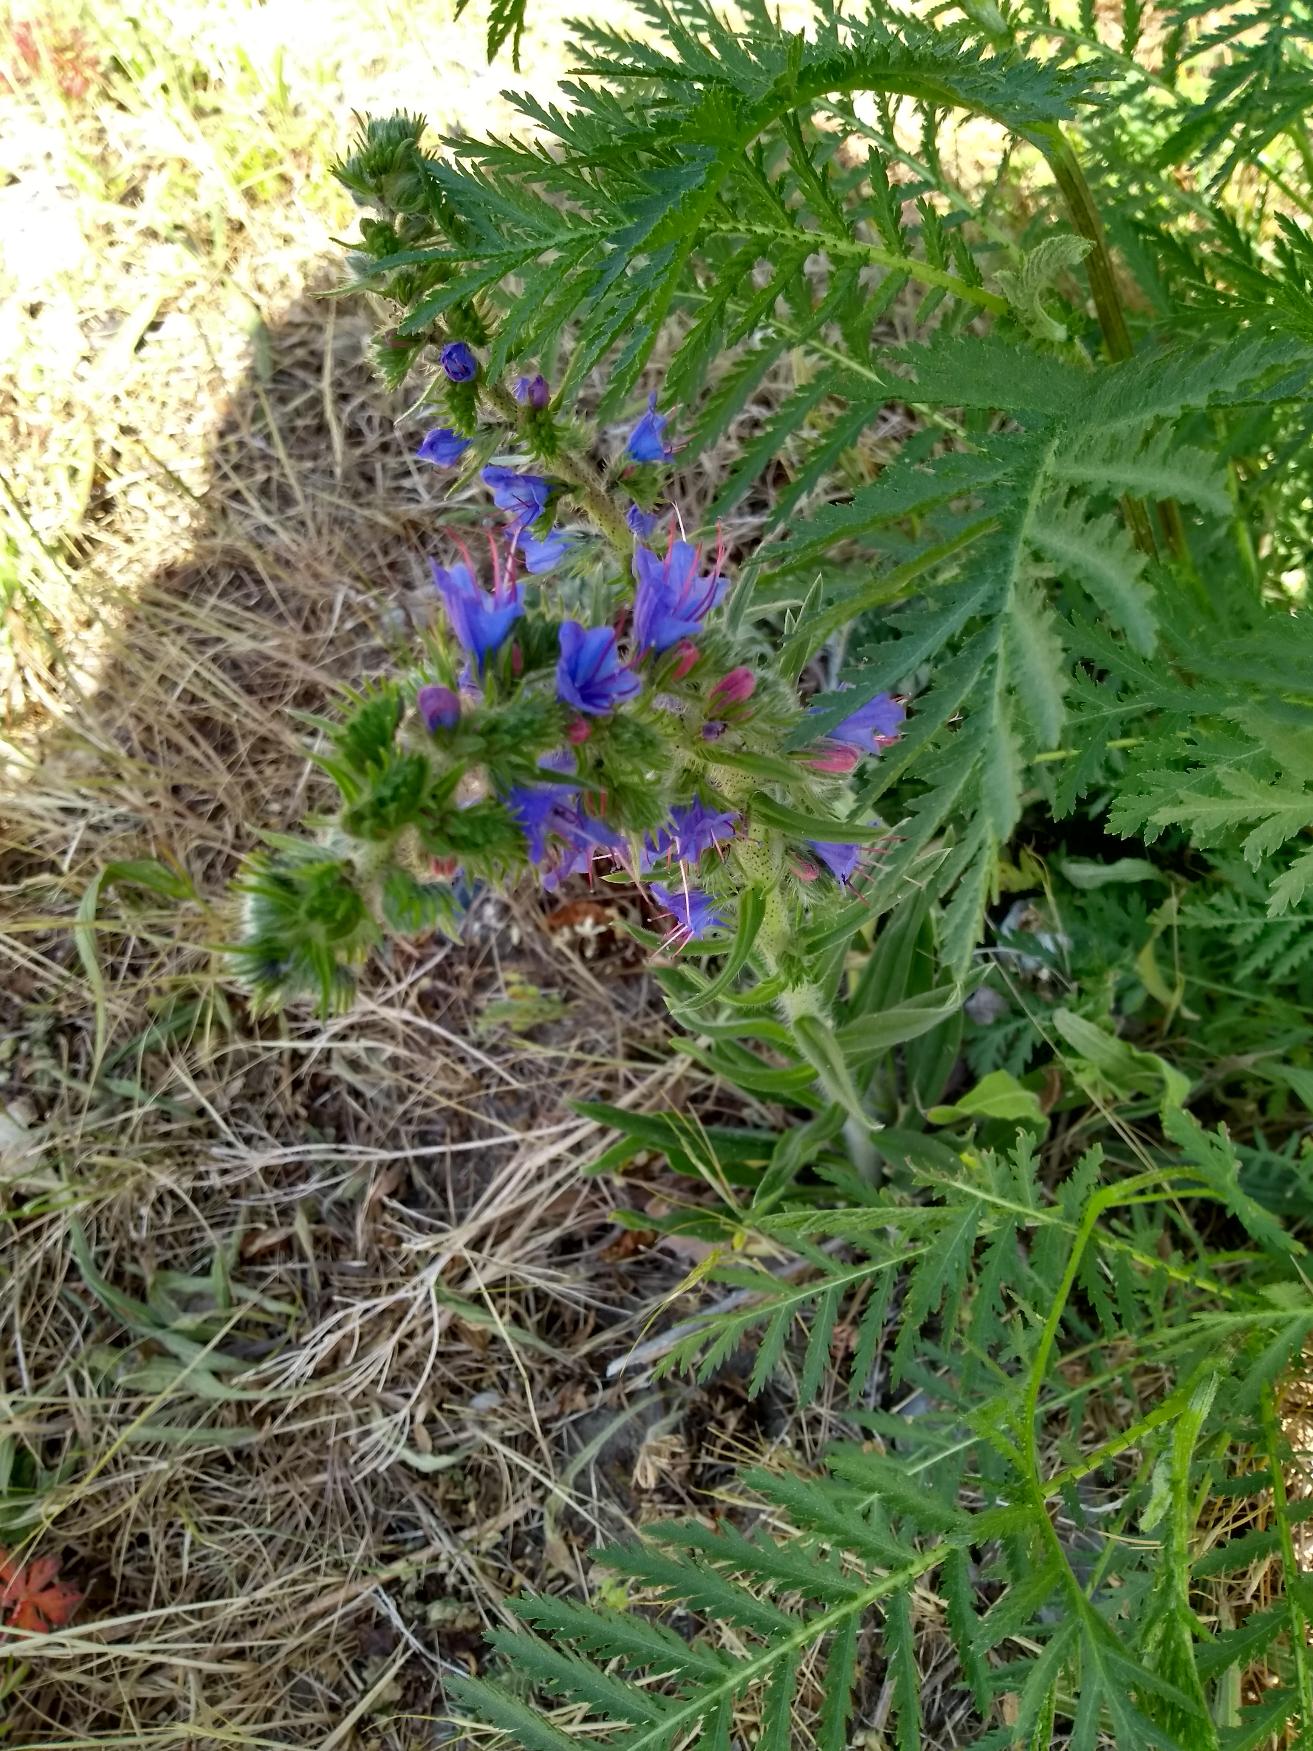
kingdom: Plantae
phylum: Tracheophyta
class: Magnoliopsida
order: Boraginales
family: Boraginaceae
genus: Echium
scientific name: Echium vulgare
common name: Slangehoved
